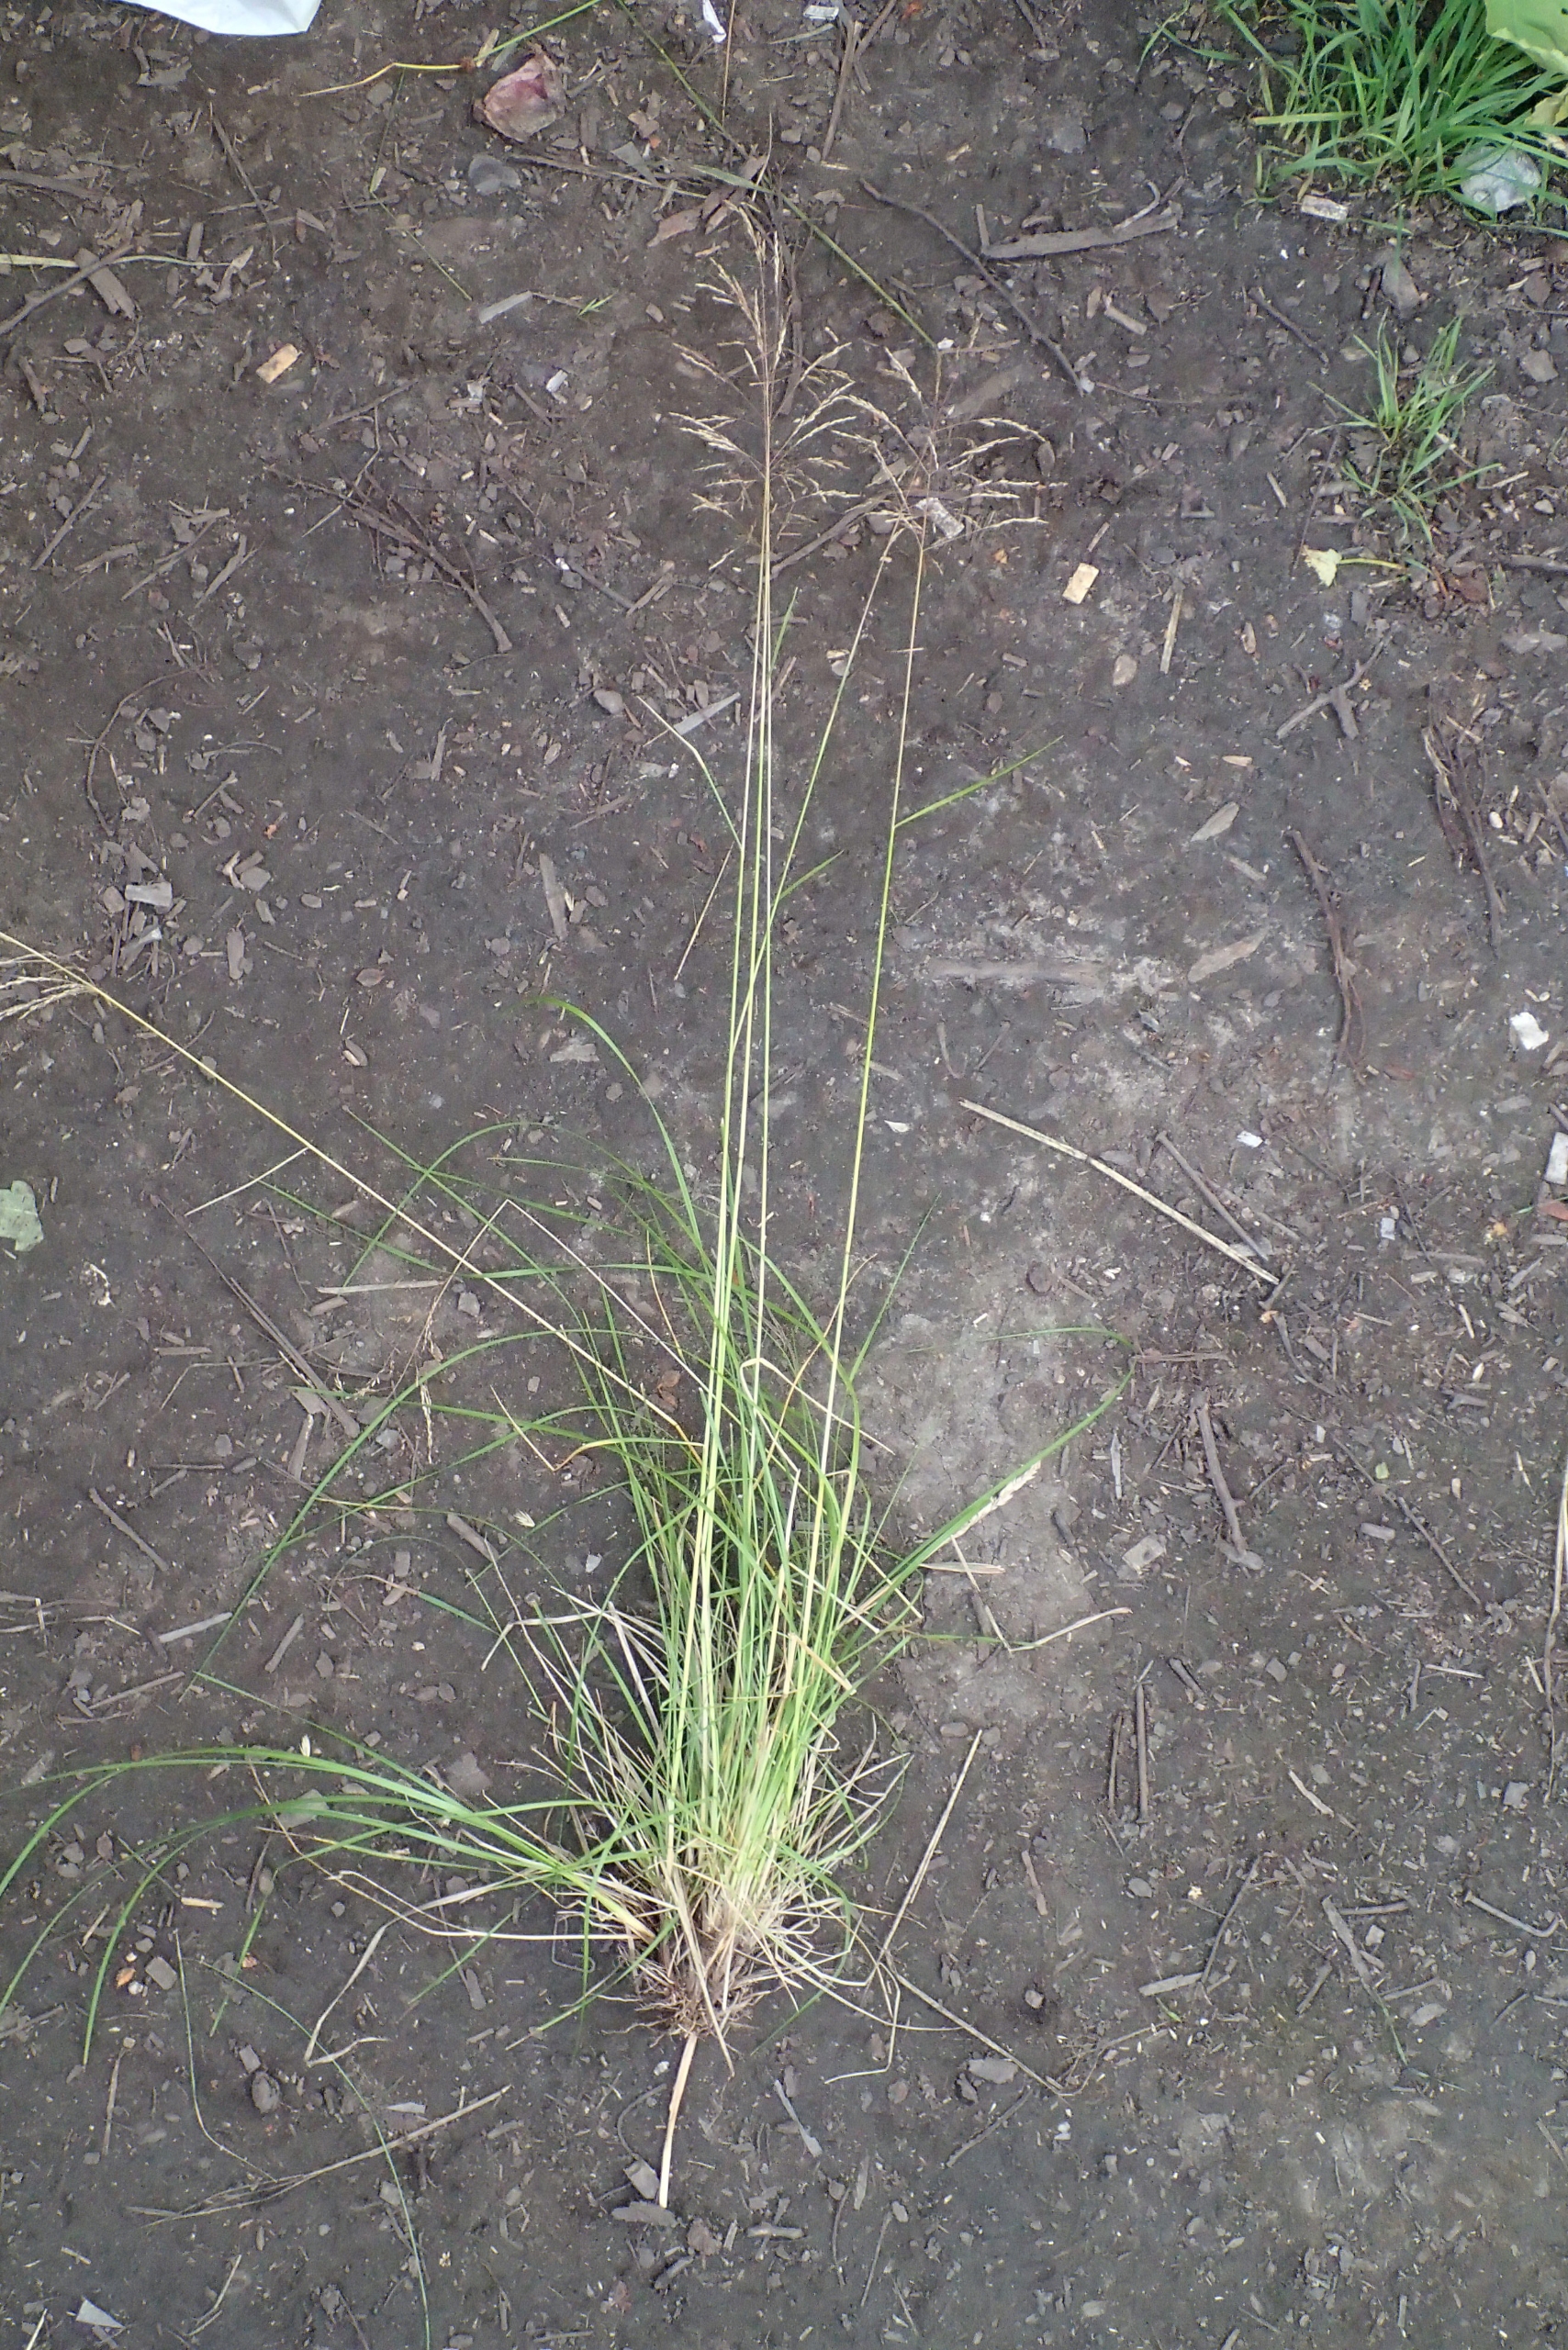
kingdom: Plantae
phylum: Tracheophyta
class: Liliopsida
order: Poales
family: Poaceae
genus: Deschampsia
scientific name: Deschampsia cespitosa
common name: Mose-bunke
